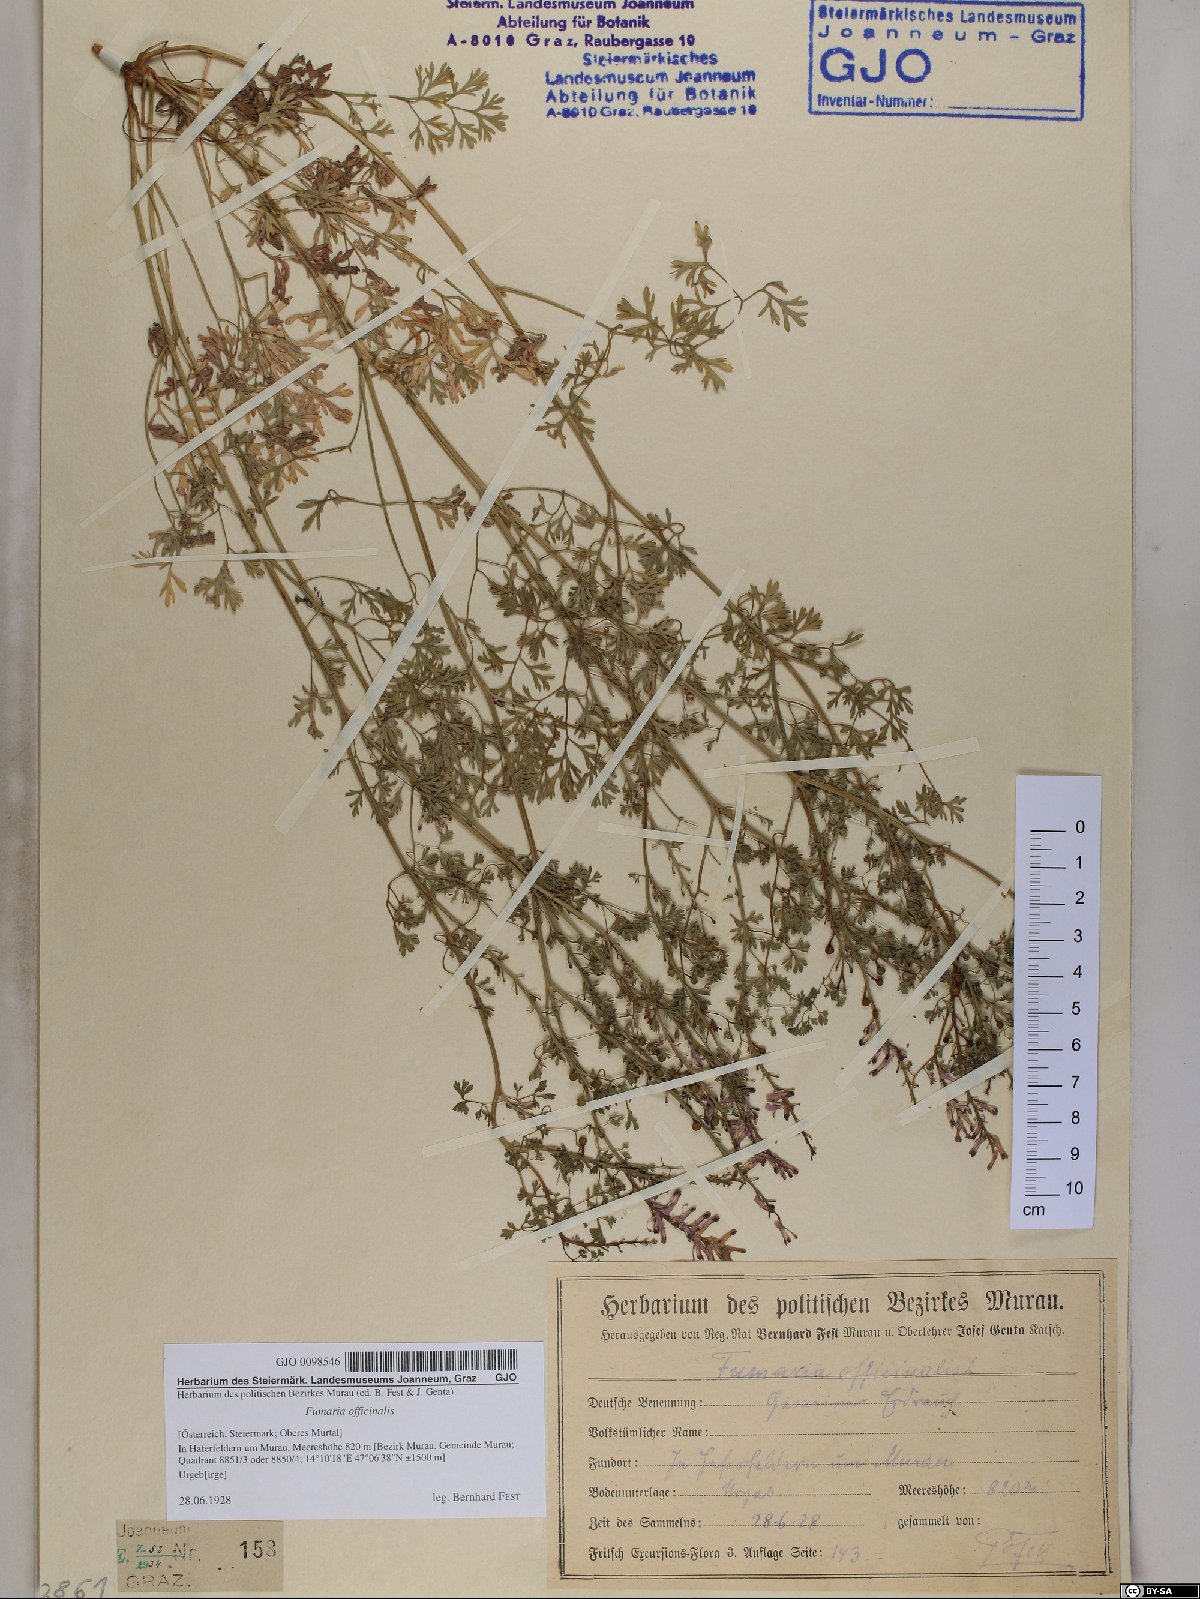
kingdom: Plantae
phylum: Tracheophyta
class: Magnoliopsida
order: Ranunculales
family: Papaveraceae
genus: Fumaria
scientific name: Fumaria officinalis
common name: Common fumitory
